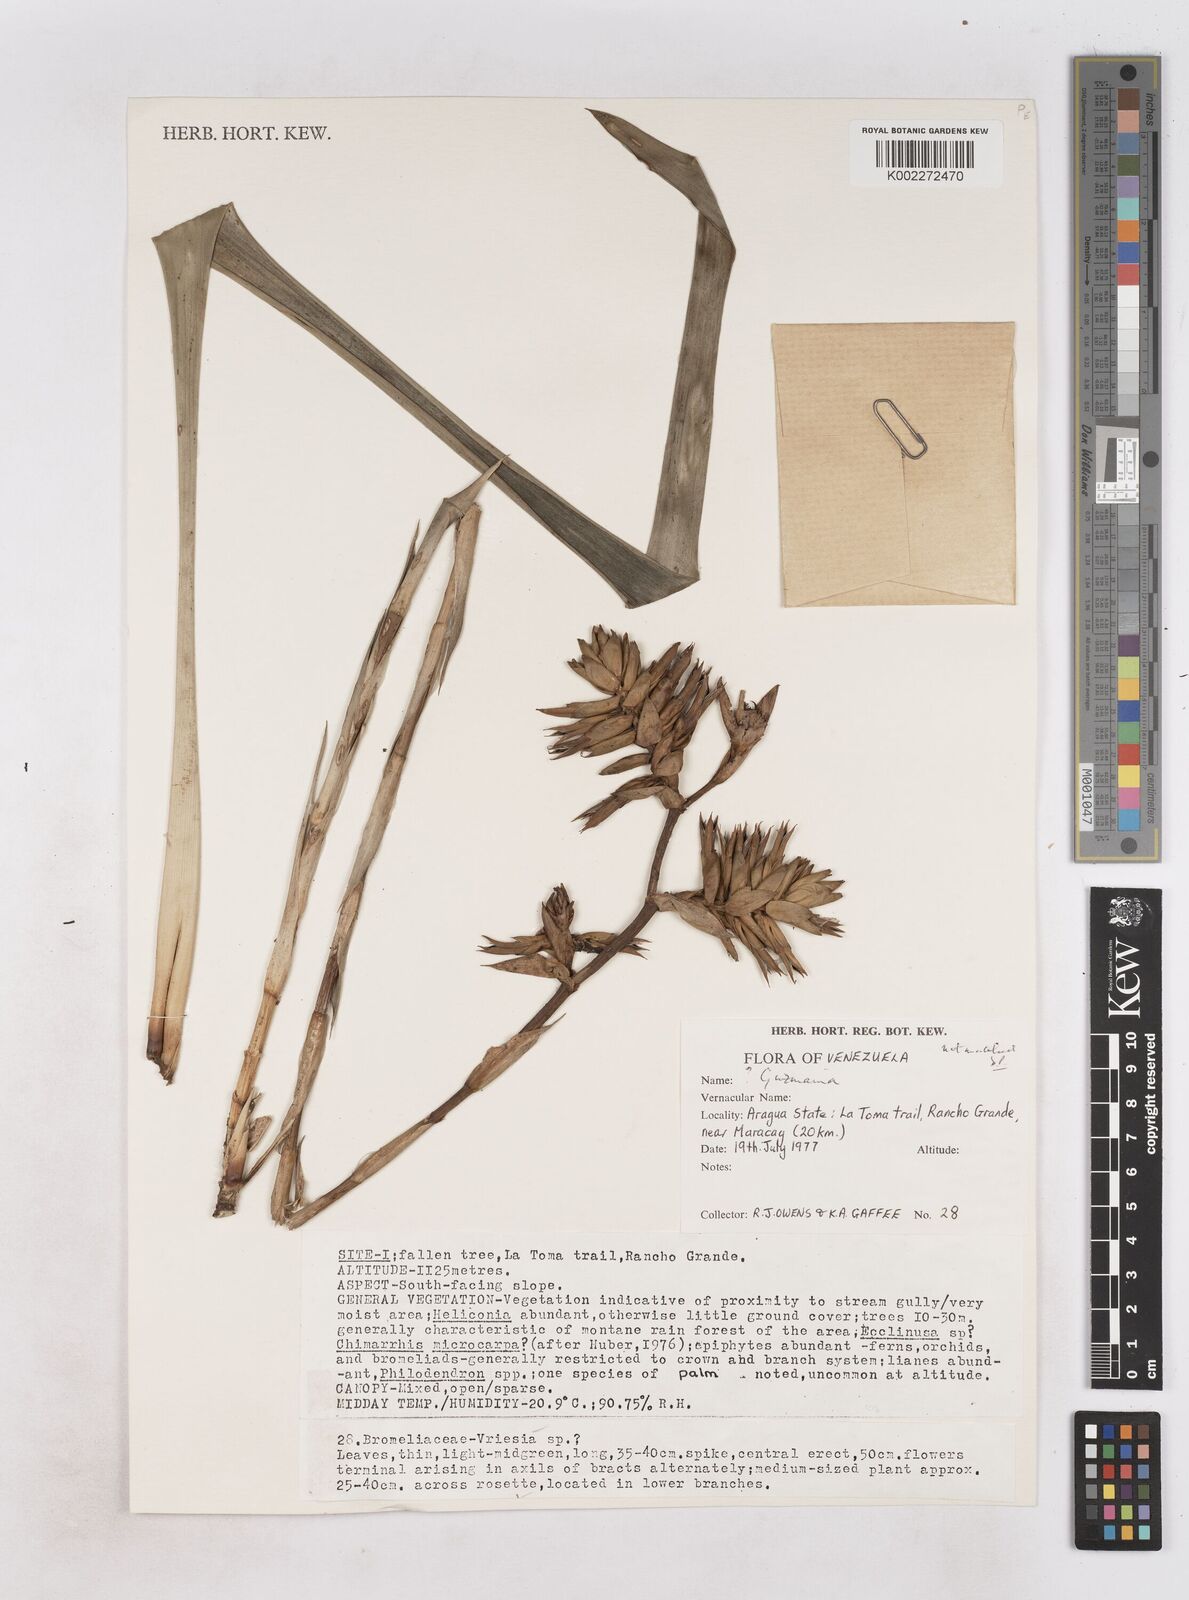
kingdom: Plantae
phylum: Tracheophyta
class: Liliopsida
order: Poales
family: Bromeliaceae
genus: Guzmania
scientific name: Guzmania
